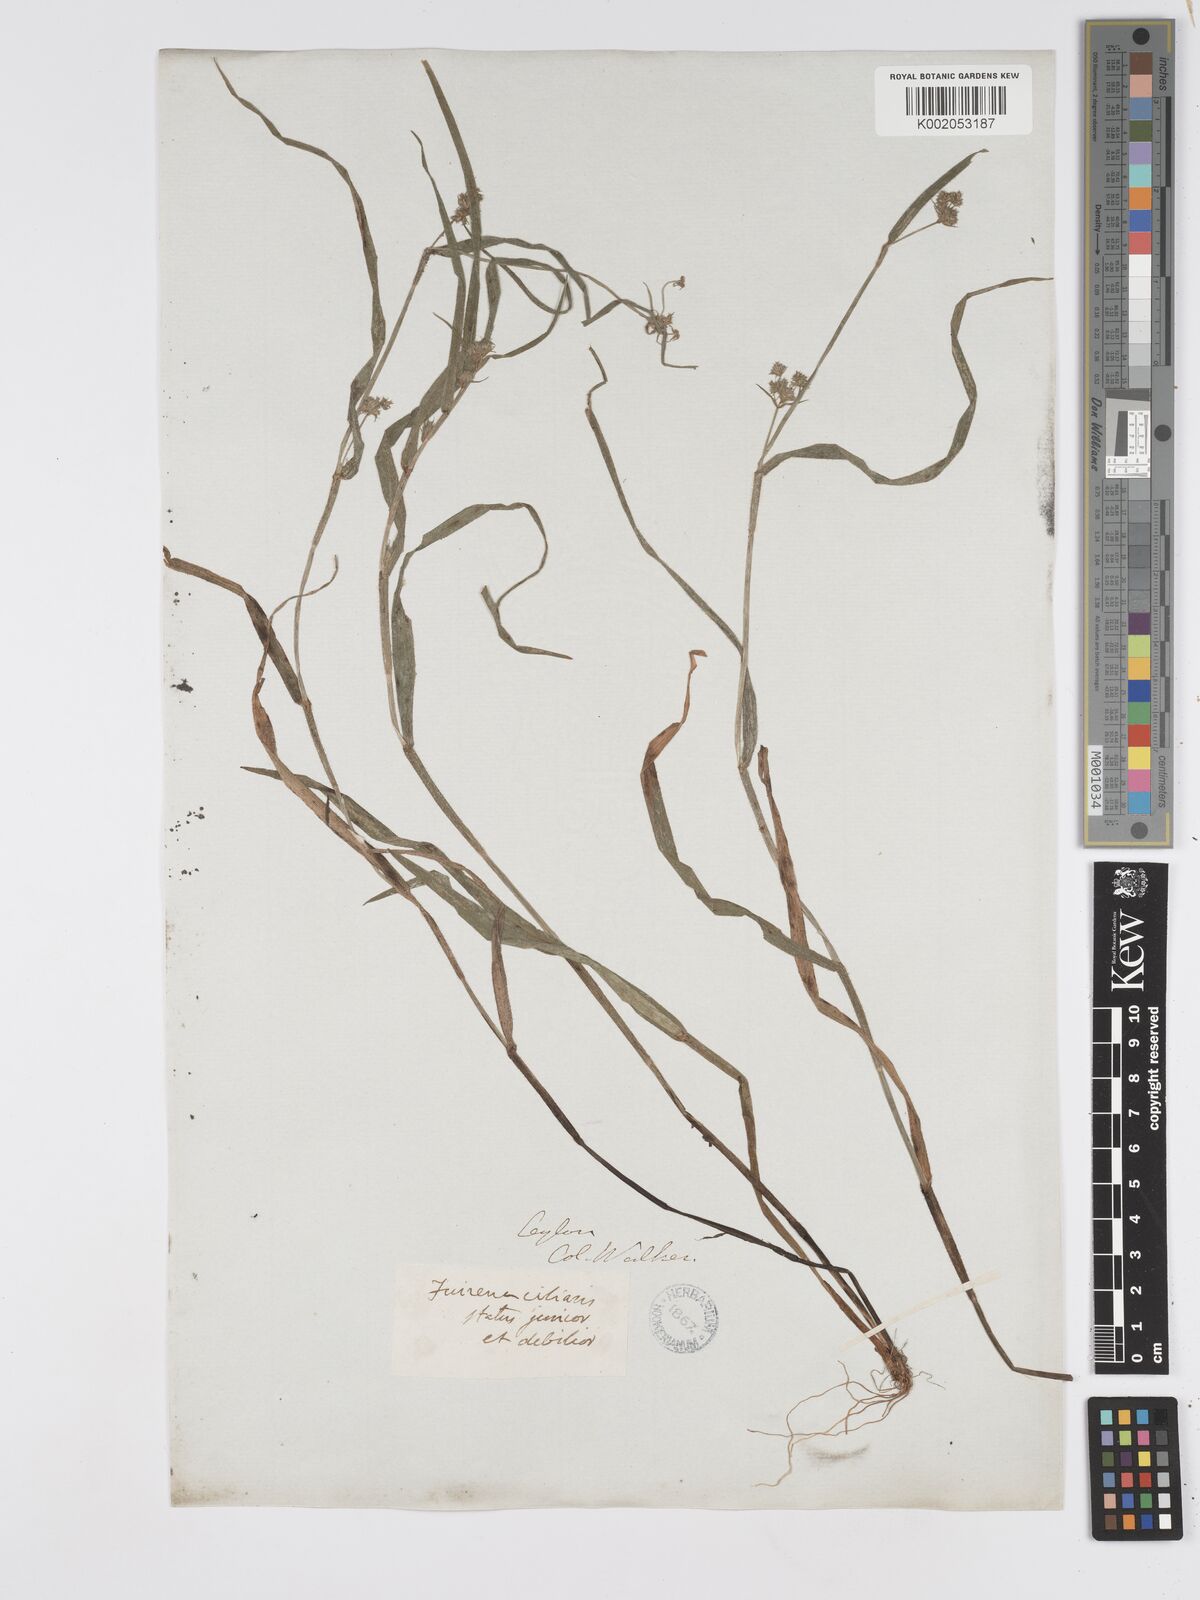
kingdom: Plantae
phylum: Tracheophyta
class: Liliopsida
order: Poales
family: Cyperaceae
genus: Fuirena
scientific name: Fuirena uncinata
